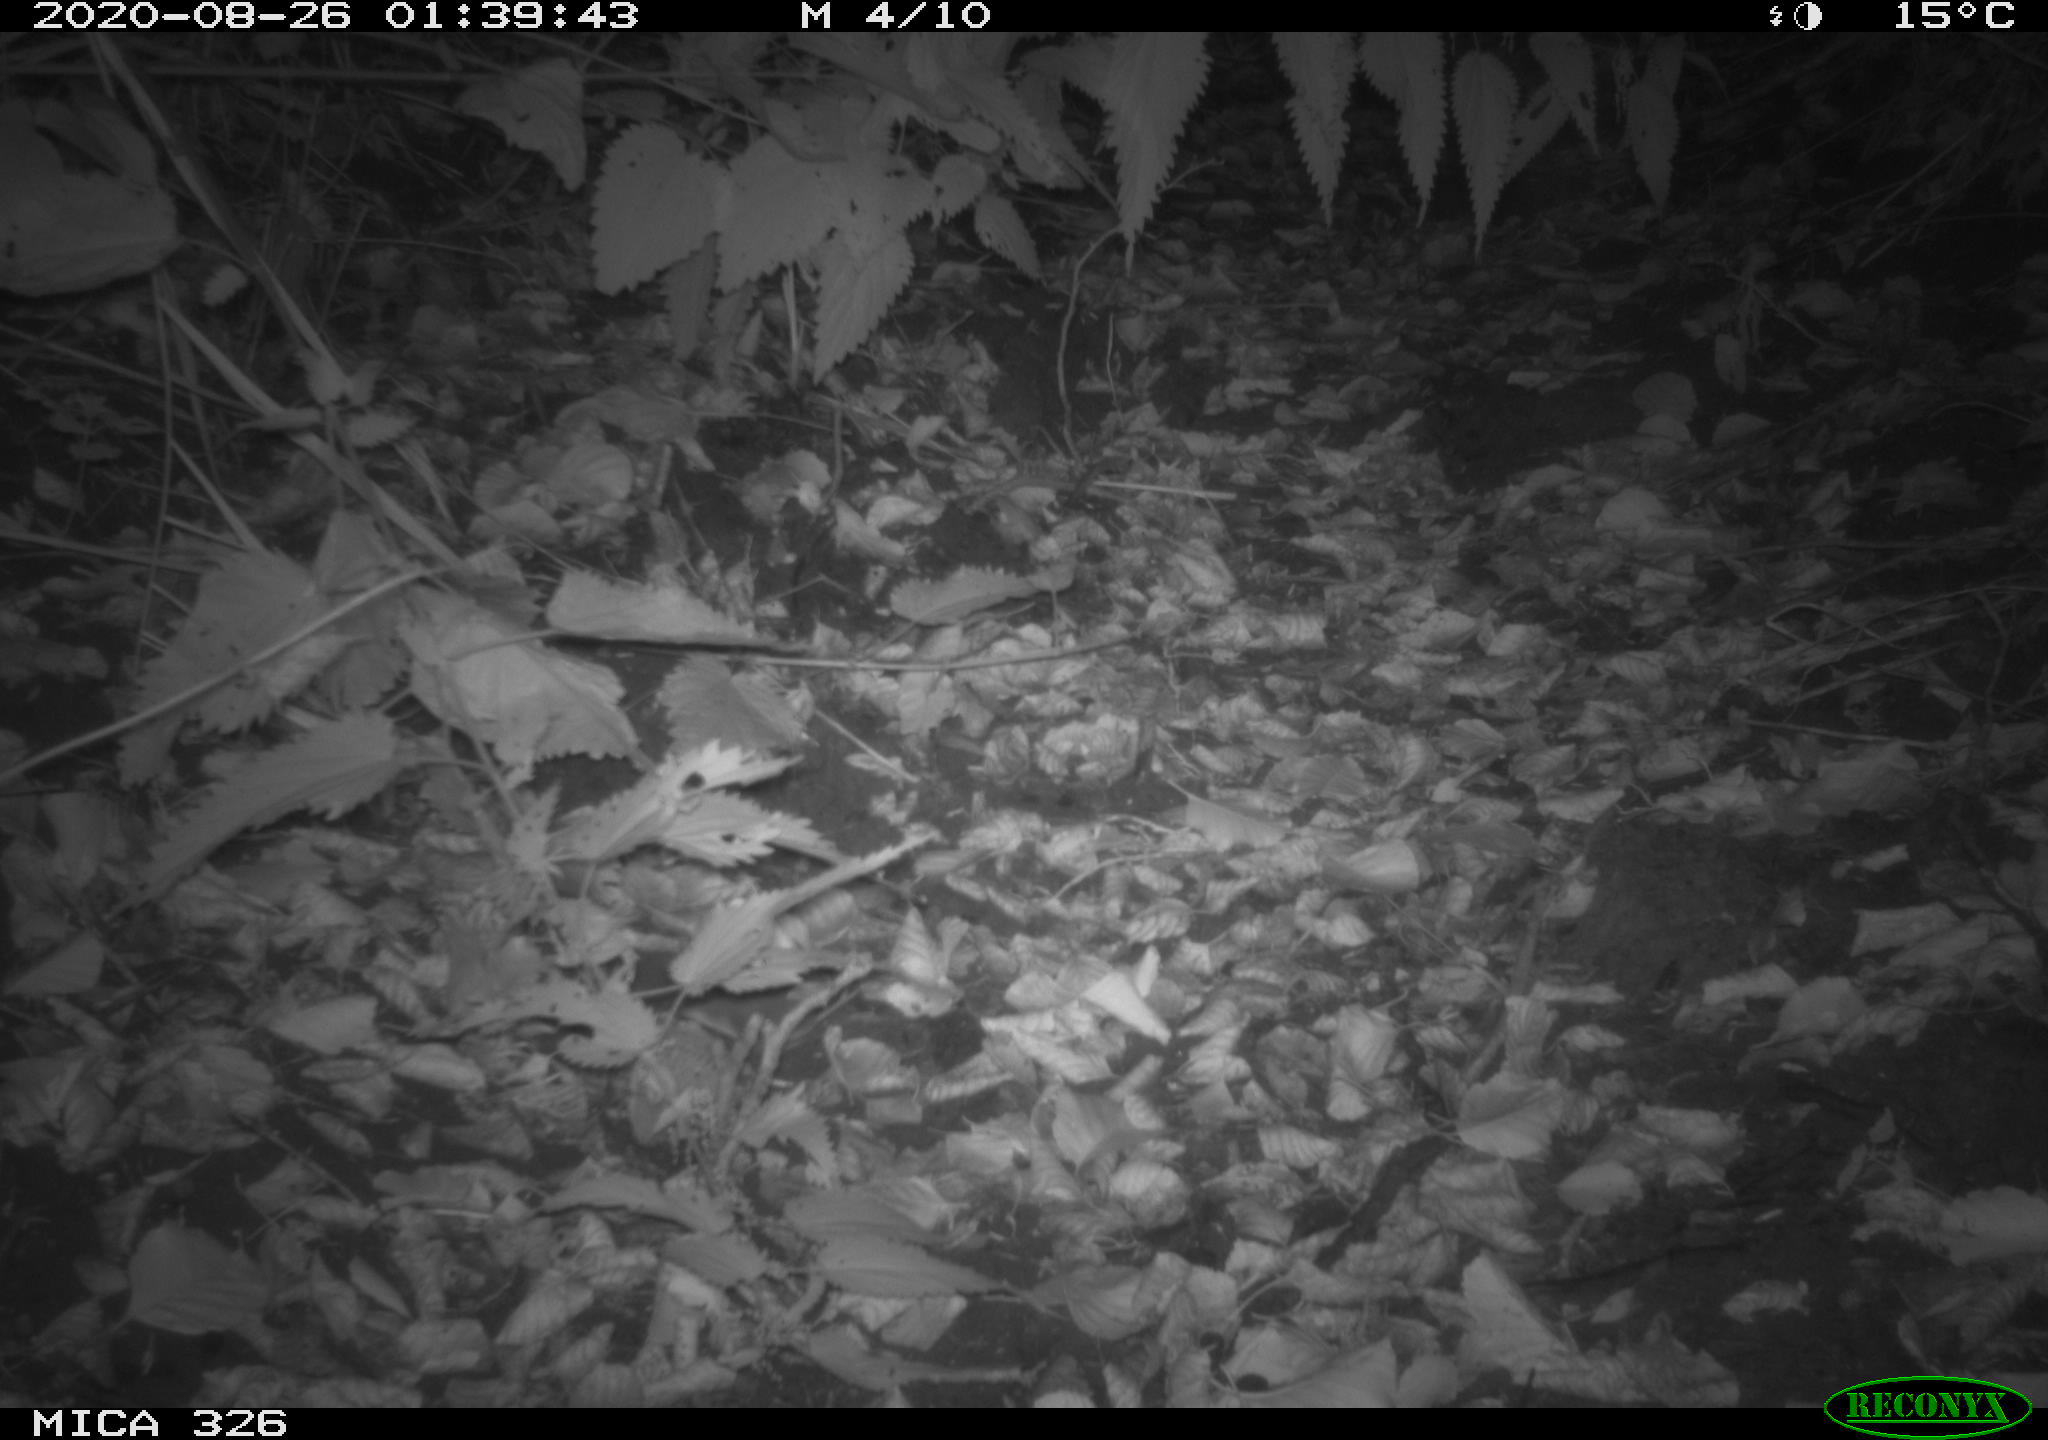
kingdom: Animalia
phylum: Chordata
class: Mammalia
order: Rodentia
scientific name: Rodentia
